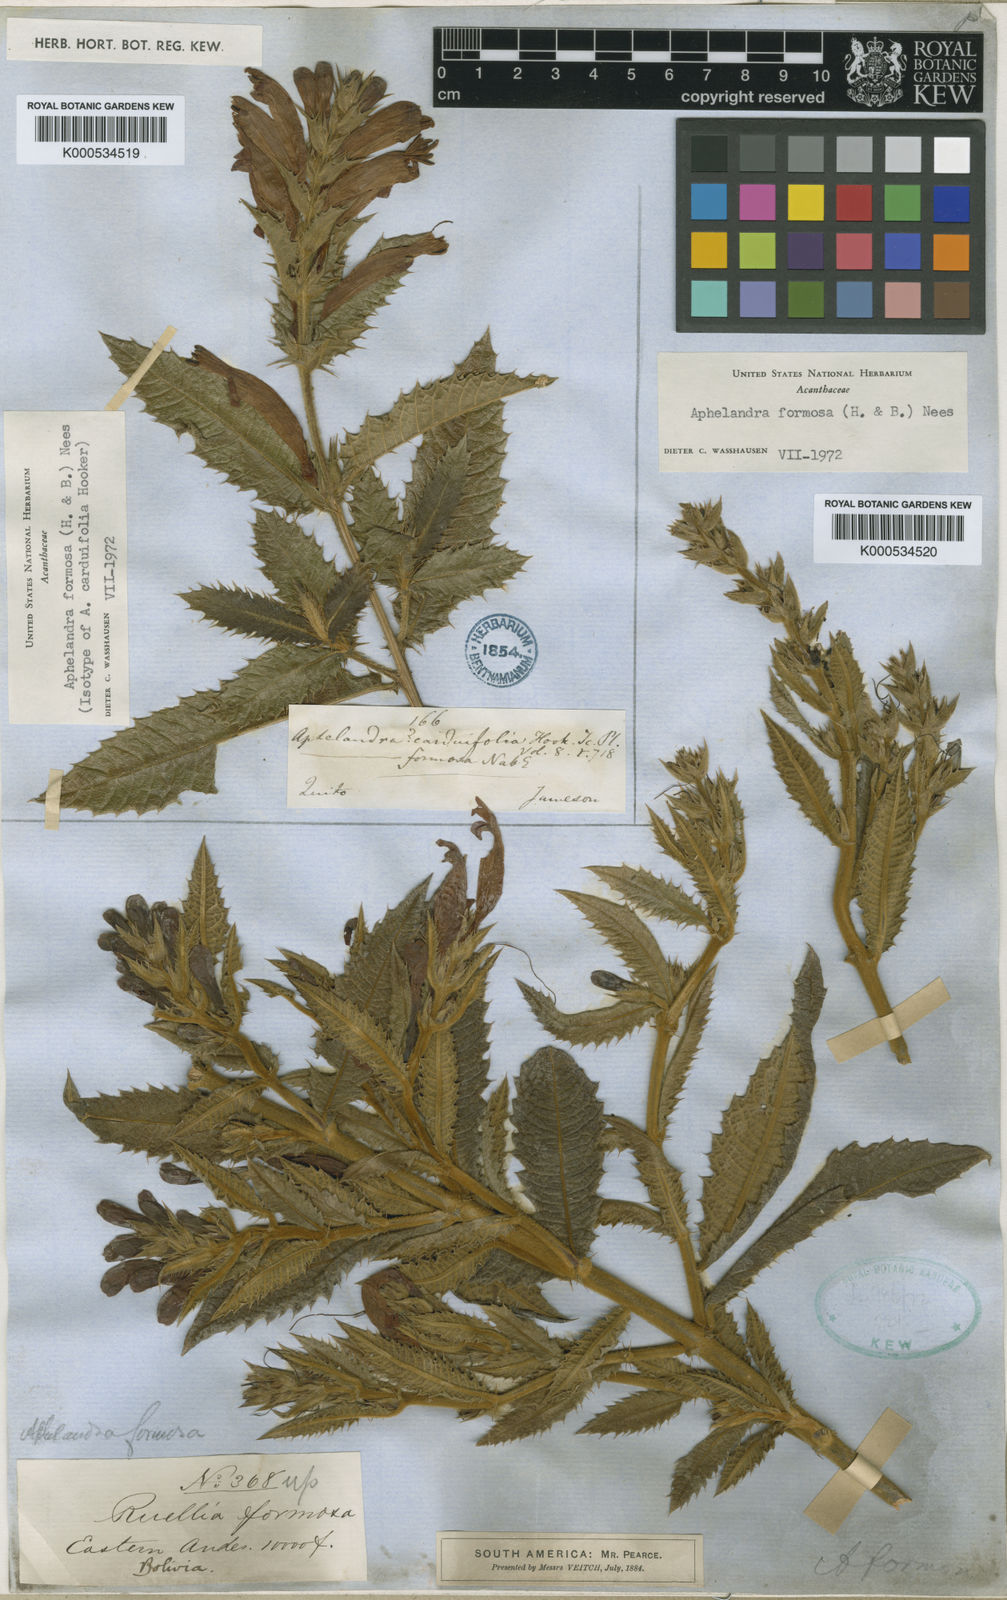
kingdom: Plantae
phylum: Tracheophyta
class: Magnoliopsida
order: Lamiales
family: Acanthaceae
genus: Aphelandra
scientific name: Aphelandra formosa
